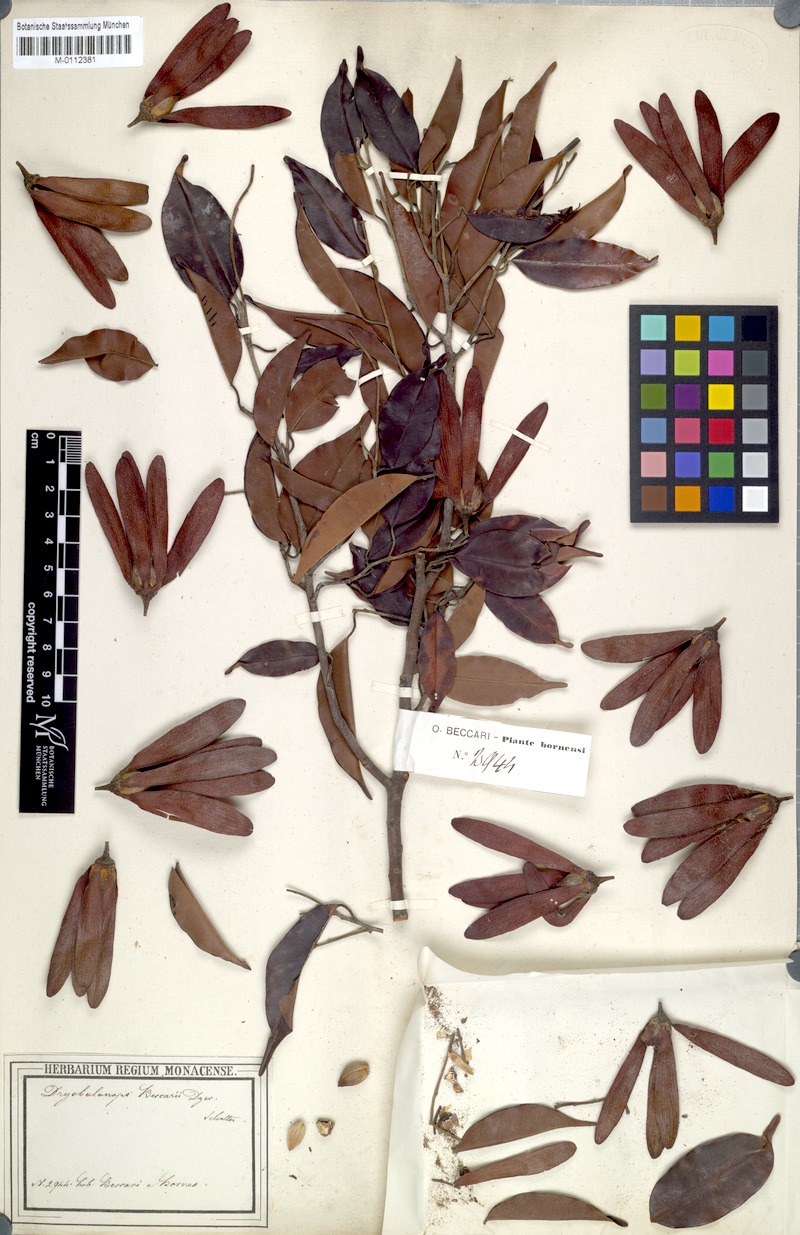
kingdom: Plantae
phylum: Tracheophyta
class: Magnoliopsida
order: Malvales
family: Dipterocarpaceae
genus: Dryobalanops
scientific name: Dryobalanops beccarii
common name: Sabah kapur
